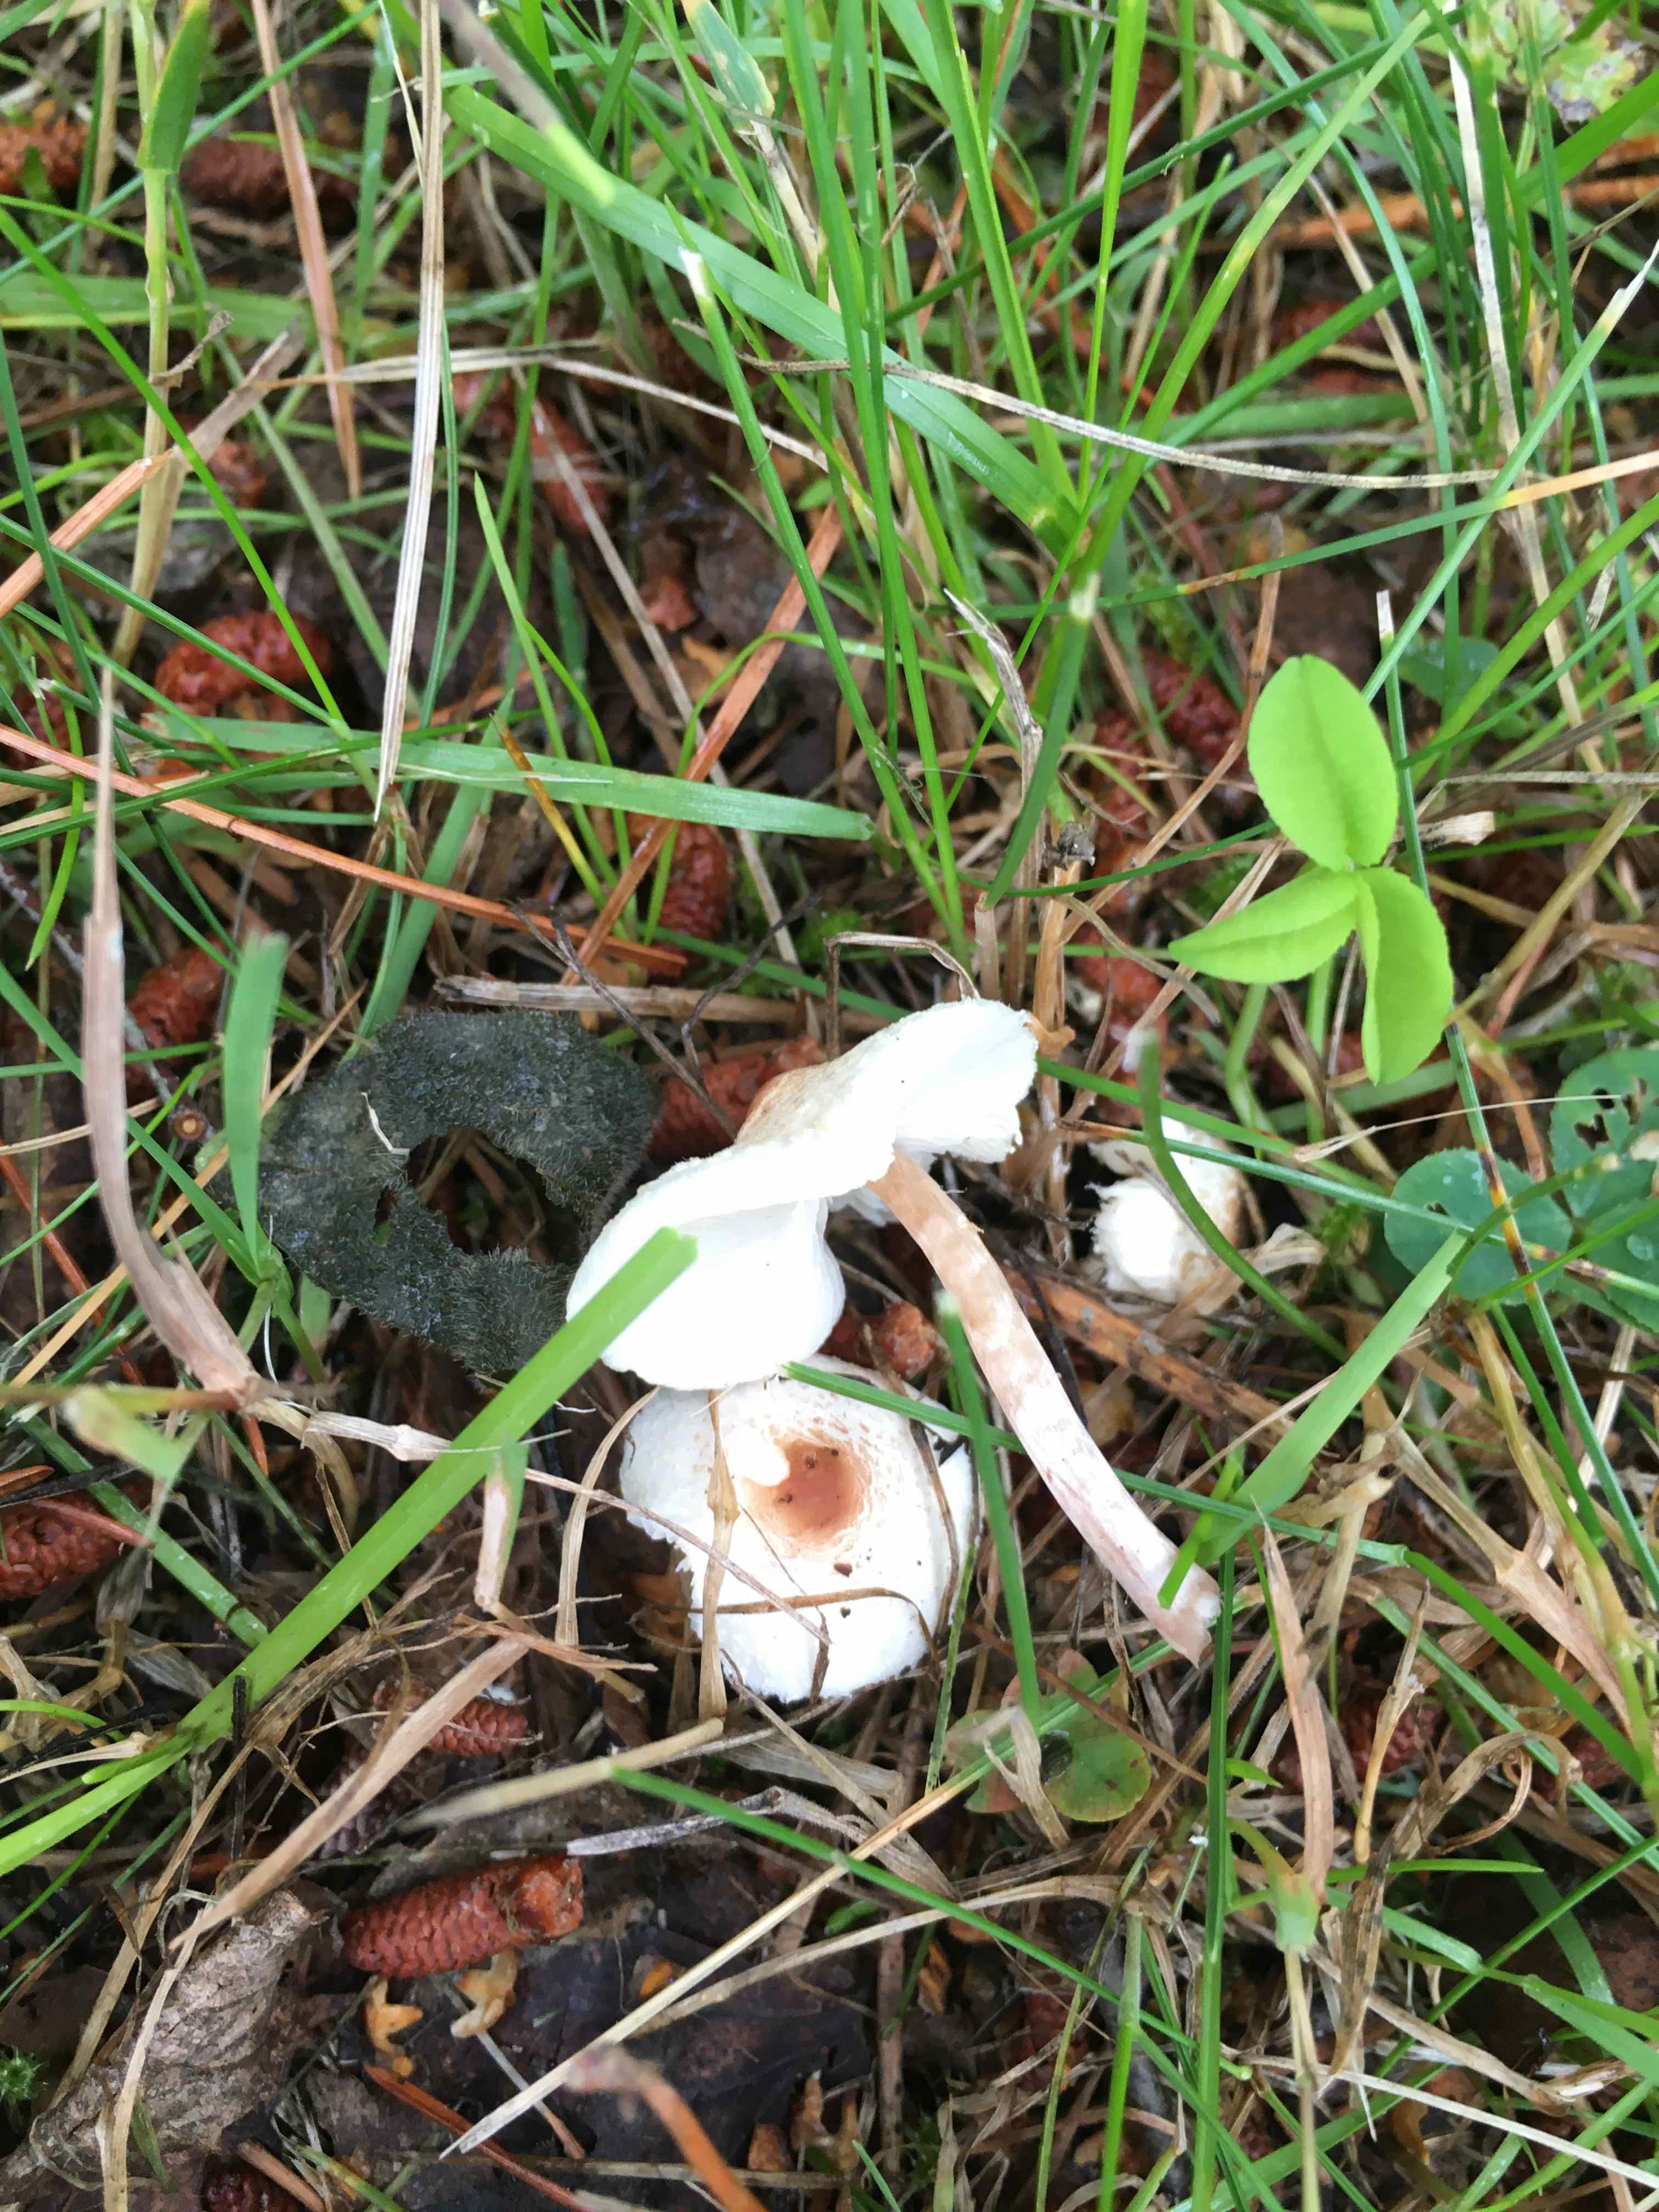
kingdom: Fungi
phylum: Basidiomycota
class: Agaricomycetes
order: Agaricales
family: Agaricaceae
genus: Lepiota
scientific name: Lepiota cristata
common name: stinkende parasolhat
